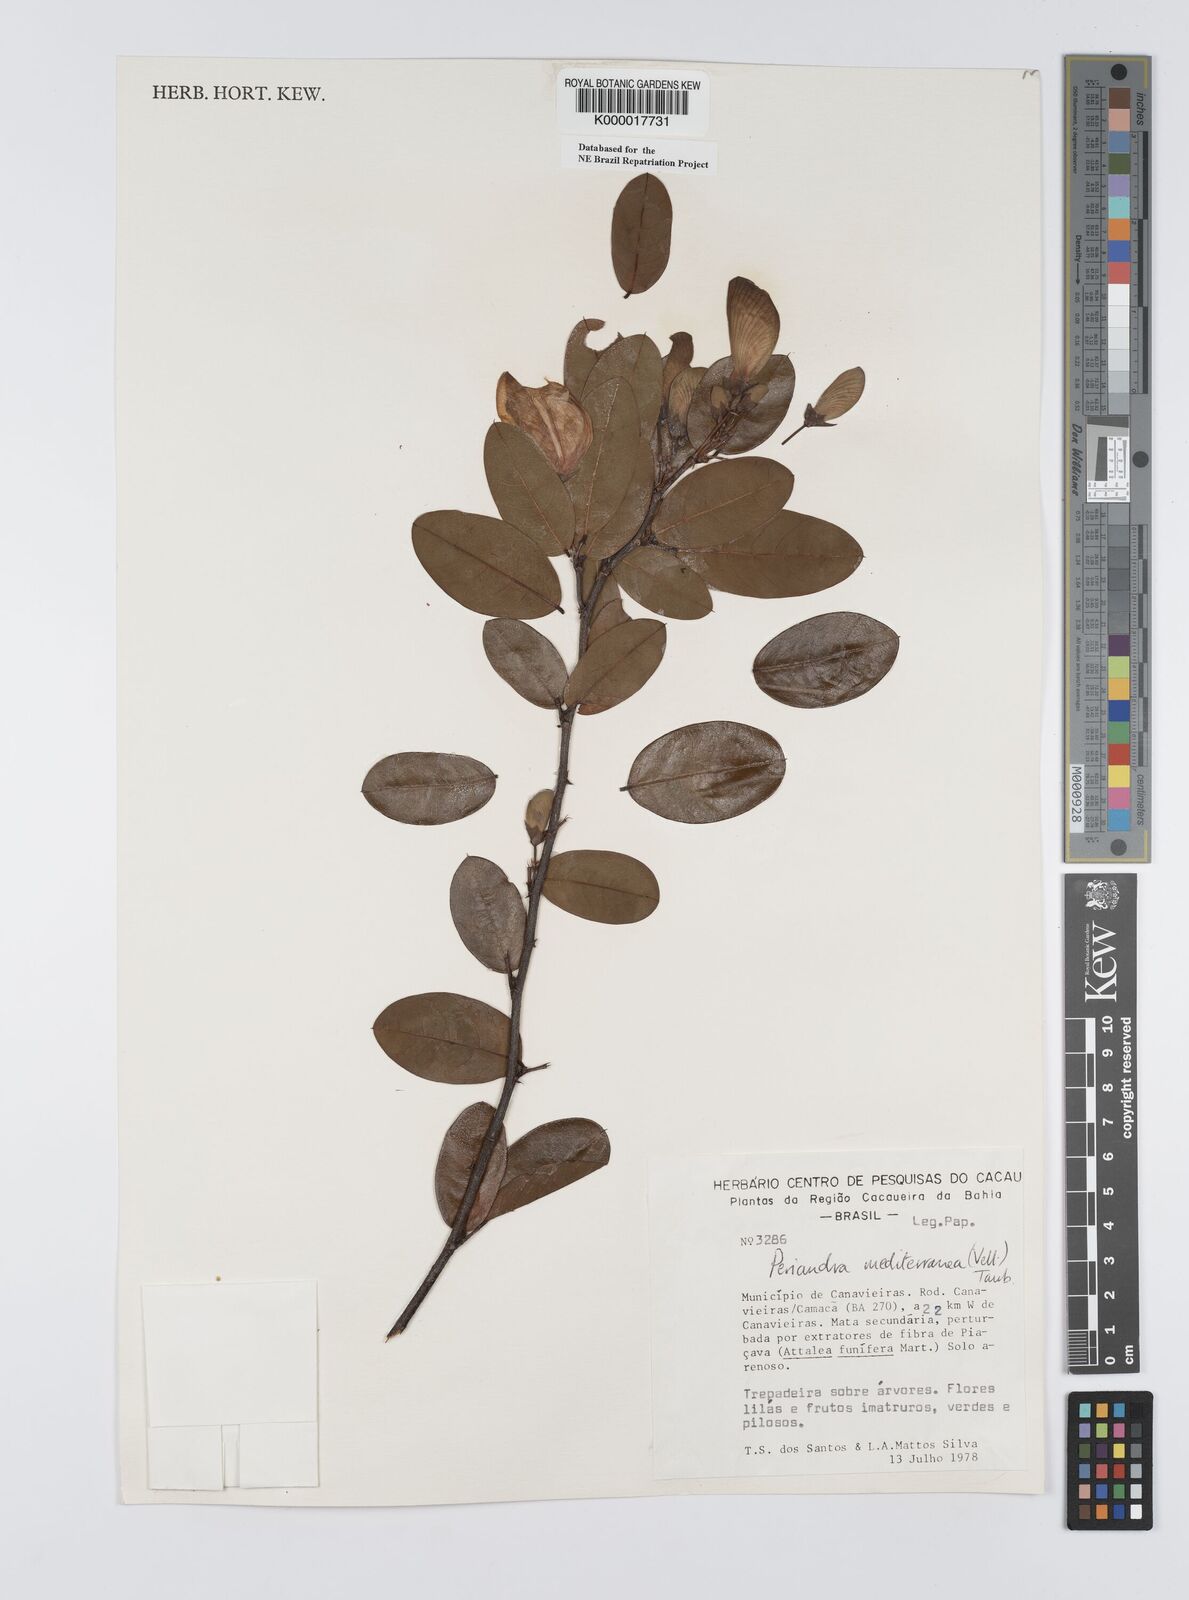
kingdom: Plantae
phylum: Tracheophyta
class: Magnoliopsida
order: Fabales
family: Fabaceae
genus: Periandra
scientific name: Periandra mediterranea
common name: Brazilian licorice
